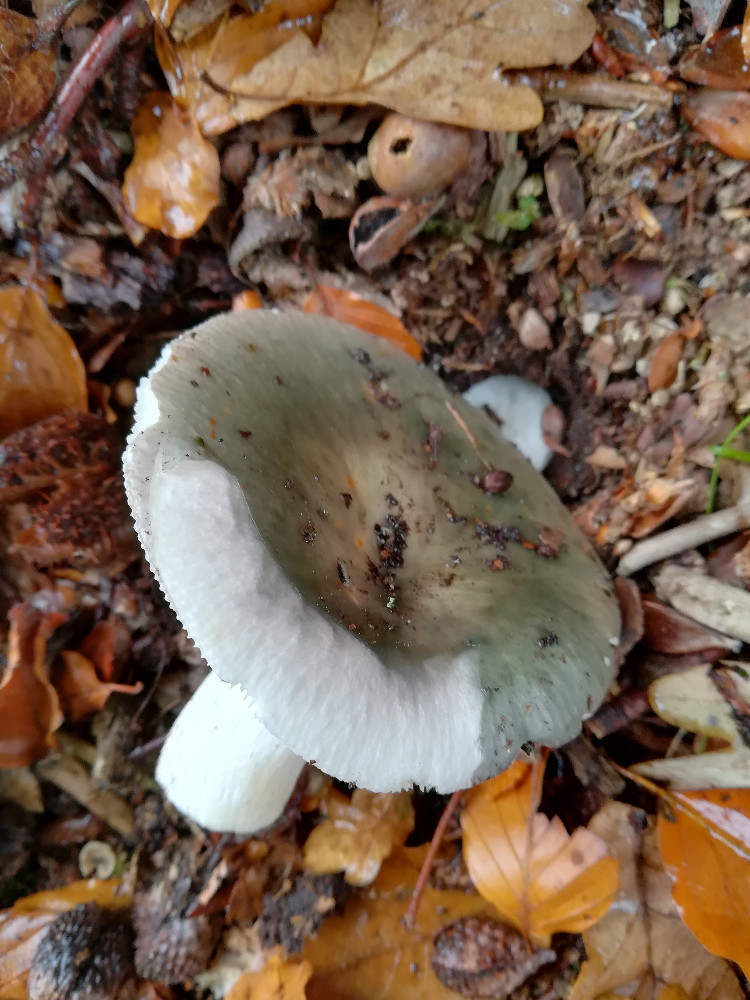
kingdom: Fungi
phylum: Basidiomycota
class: Agaricomycetes
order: Russulales
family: Russulaceae
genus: Russula
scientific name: Russula cyanoxantha
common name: broget skørhat
